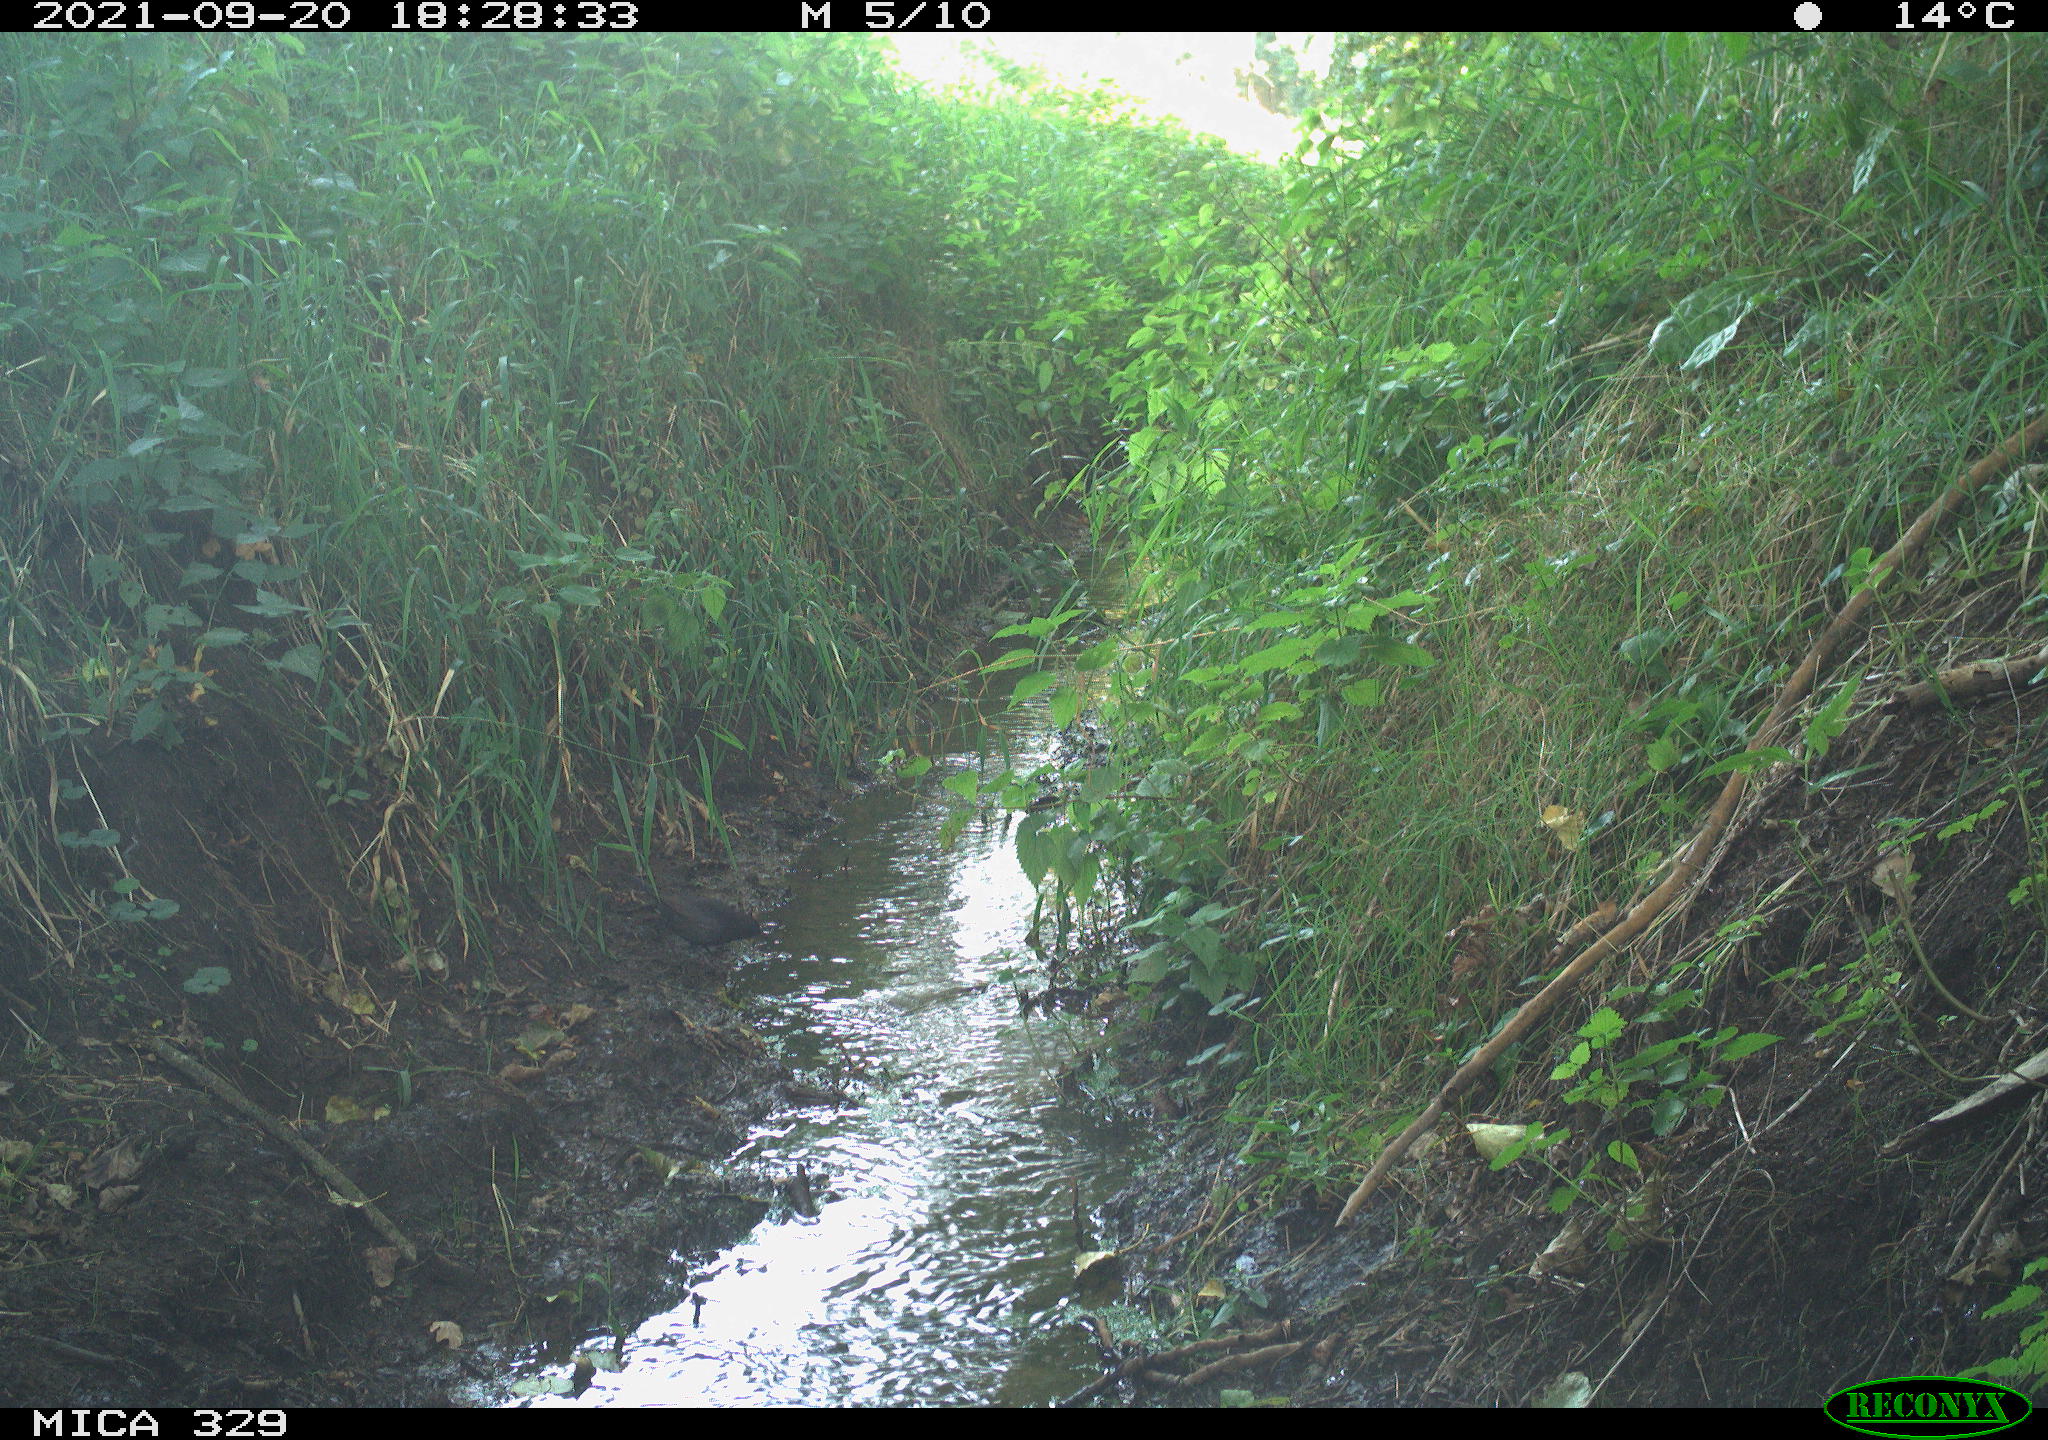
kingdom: Animalia
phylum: Chordata
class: Aves
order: Passeriformes
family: Turdidae
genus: Turdus
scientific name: Turdus merula
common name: Common blackbird
